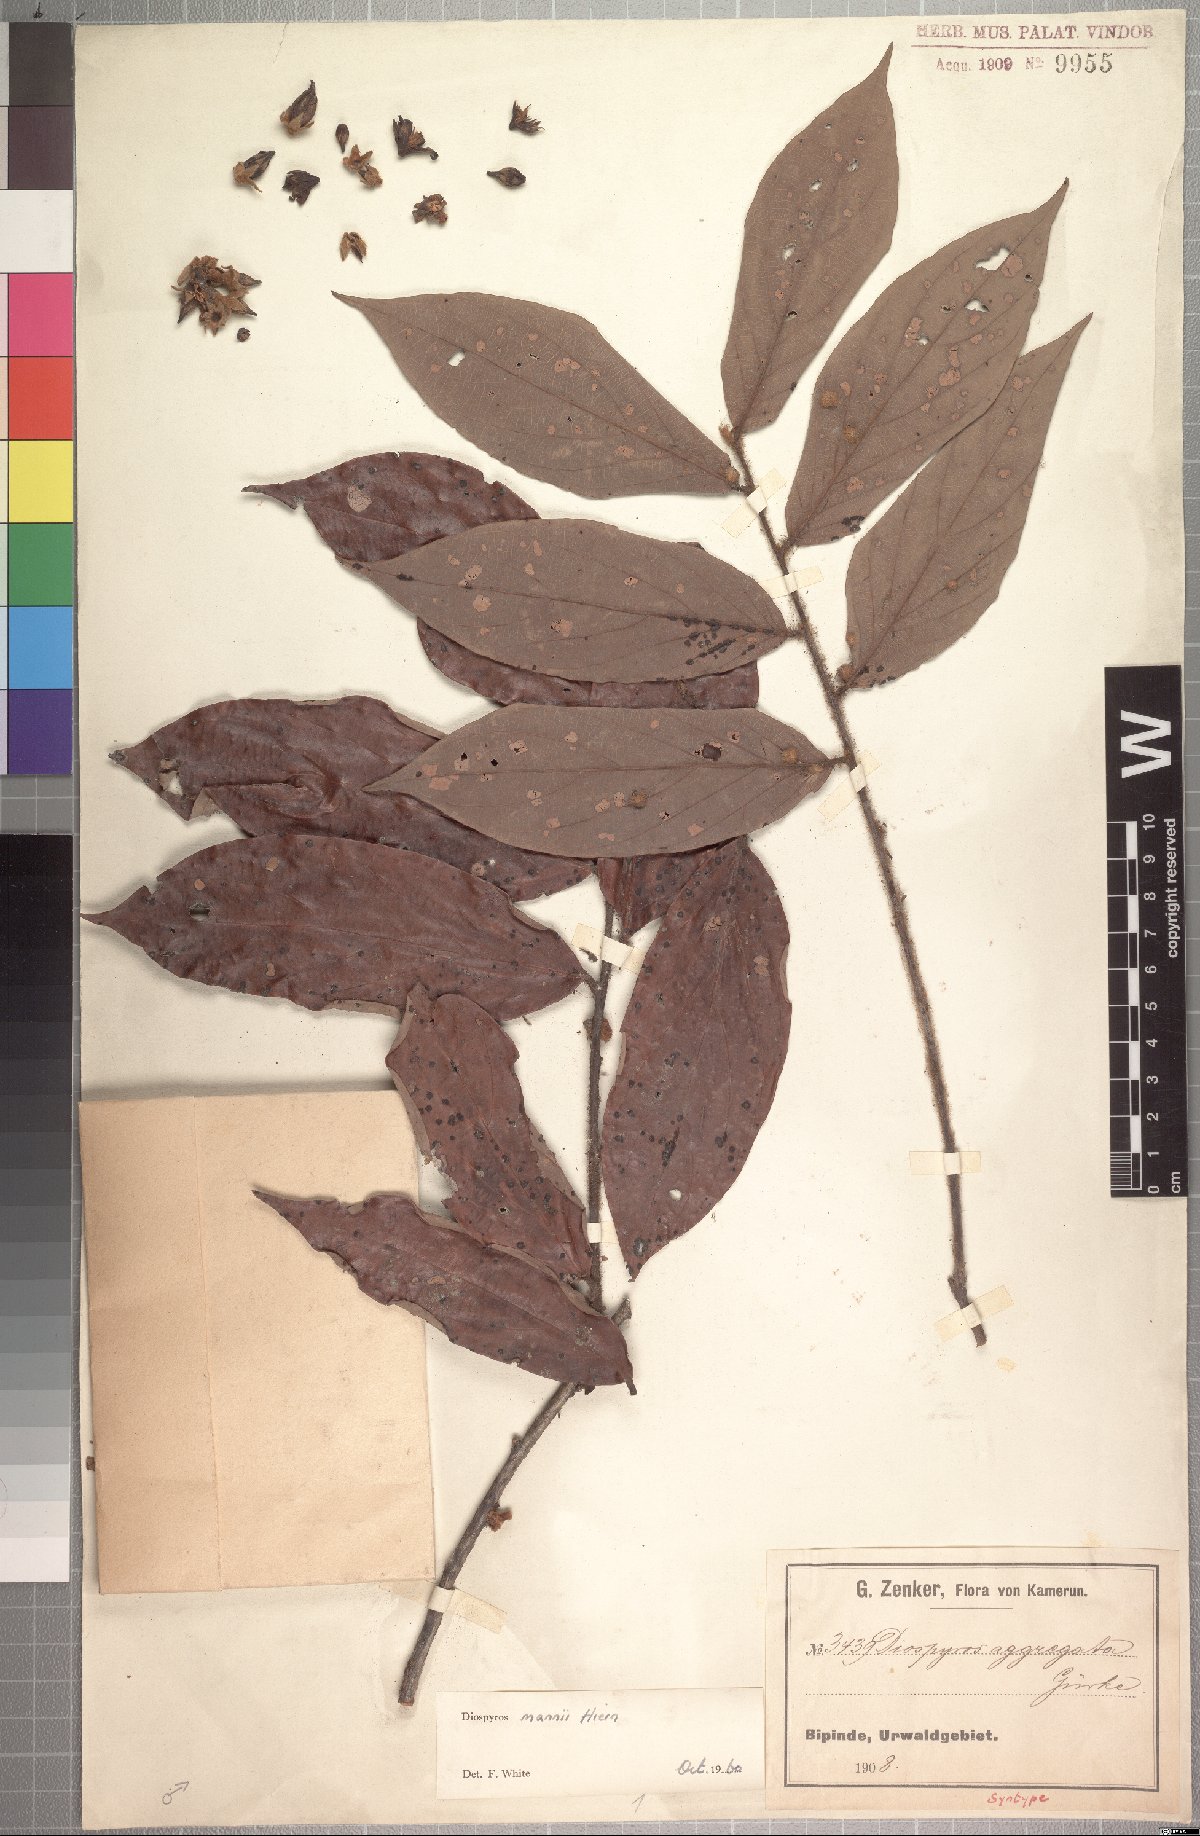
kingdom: Plantae
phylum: Tracheophyta
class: Magnoliopsida
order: Ericales
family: Ebenaceae
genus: Diospyros
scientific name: Diospyros mannii
